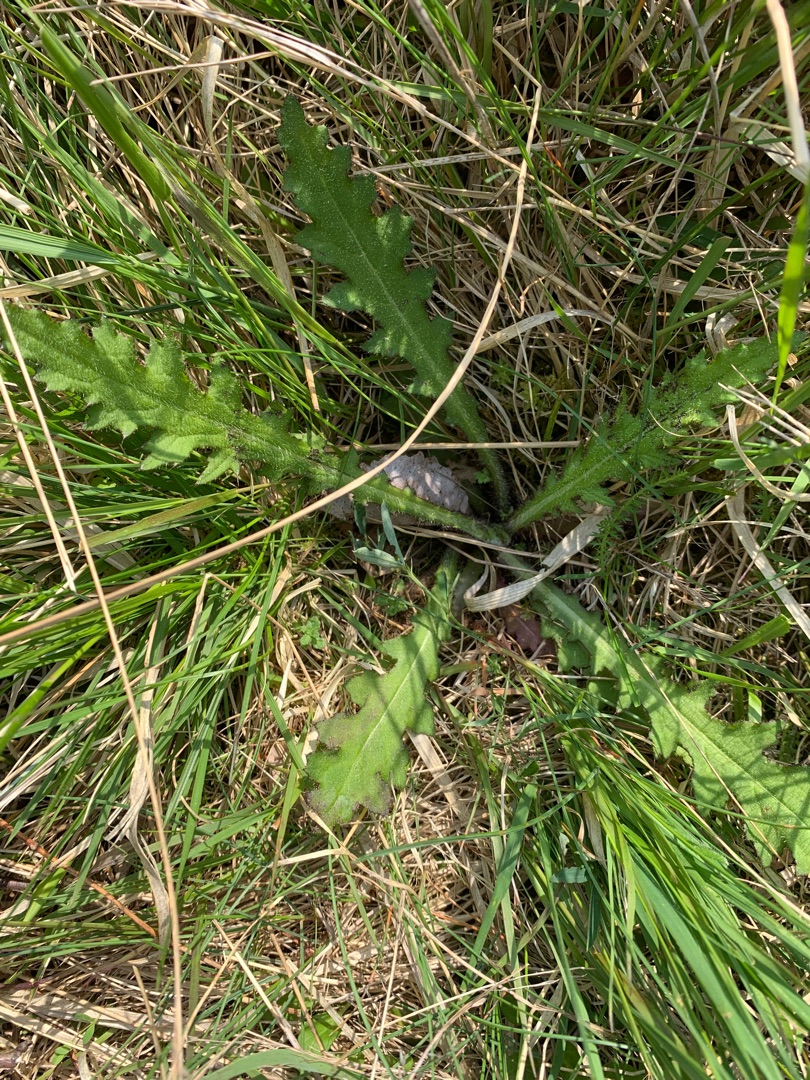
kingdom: Plantae
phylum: Tracheophyta
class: Magnoliopsida
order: Asterales
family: Asteraceae
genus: Cirsium
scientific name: Cirsium palustre
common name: Kær-tidsel
